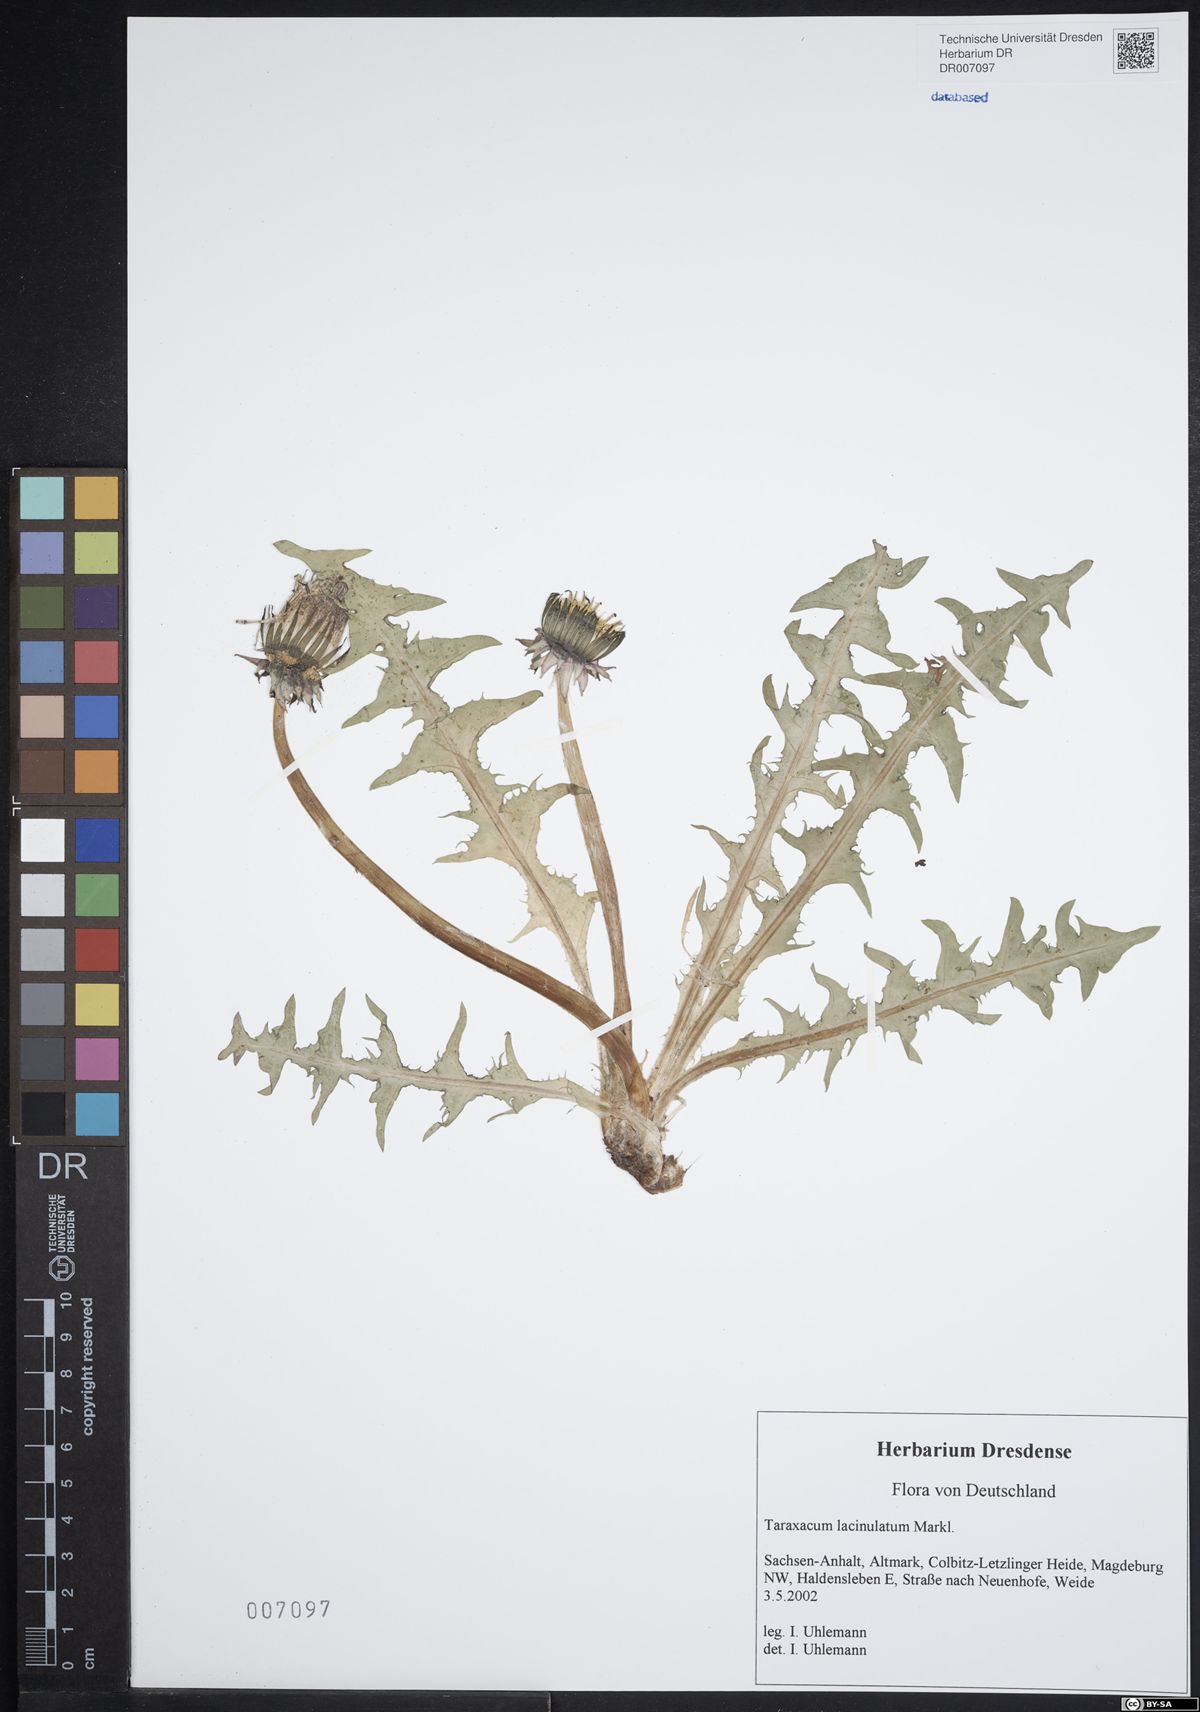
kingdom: Plantae
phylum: Tracheophyta
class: Magnoliopsida
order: Asterales
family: Asteraceae
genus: Taraxacum
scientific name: Taraxacum lacinulatum
